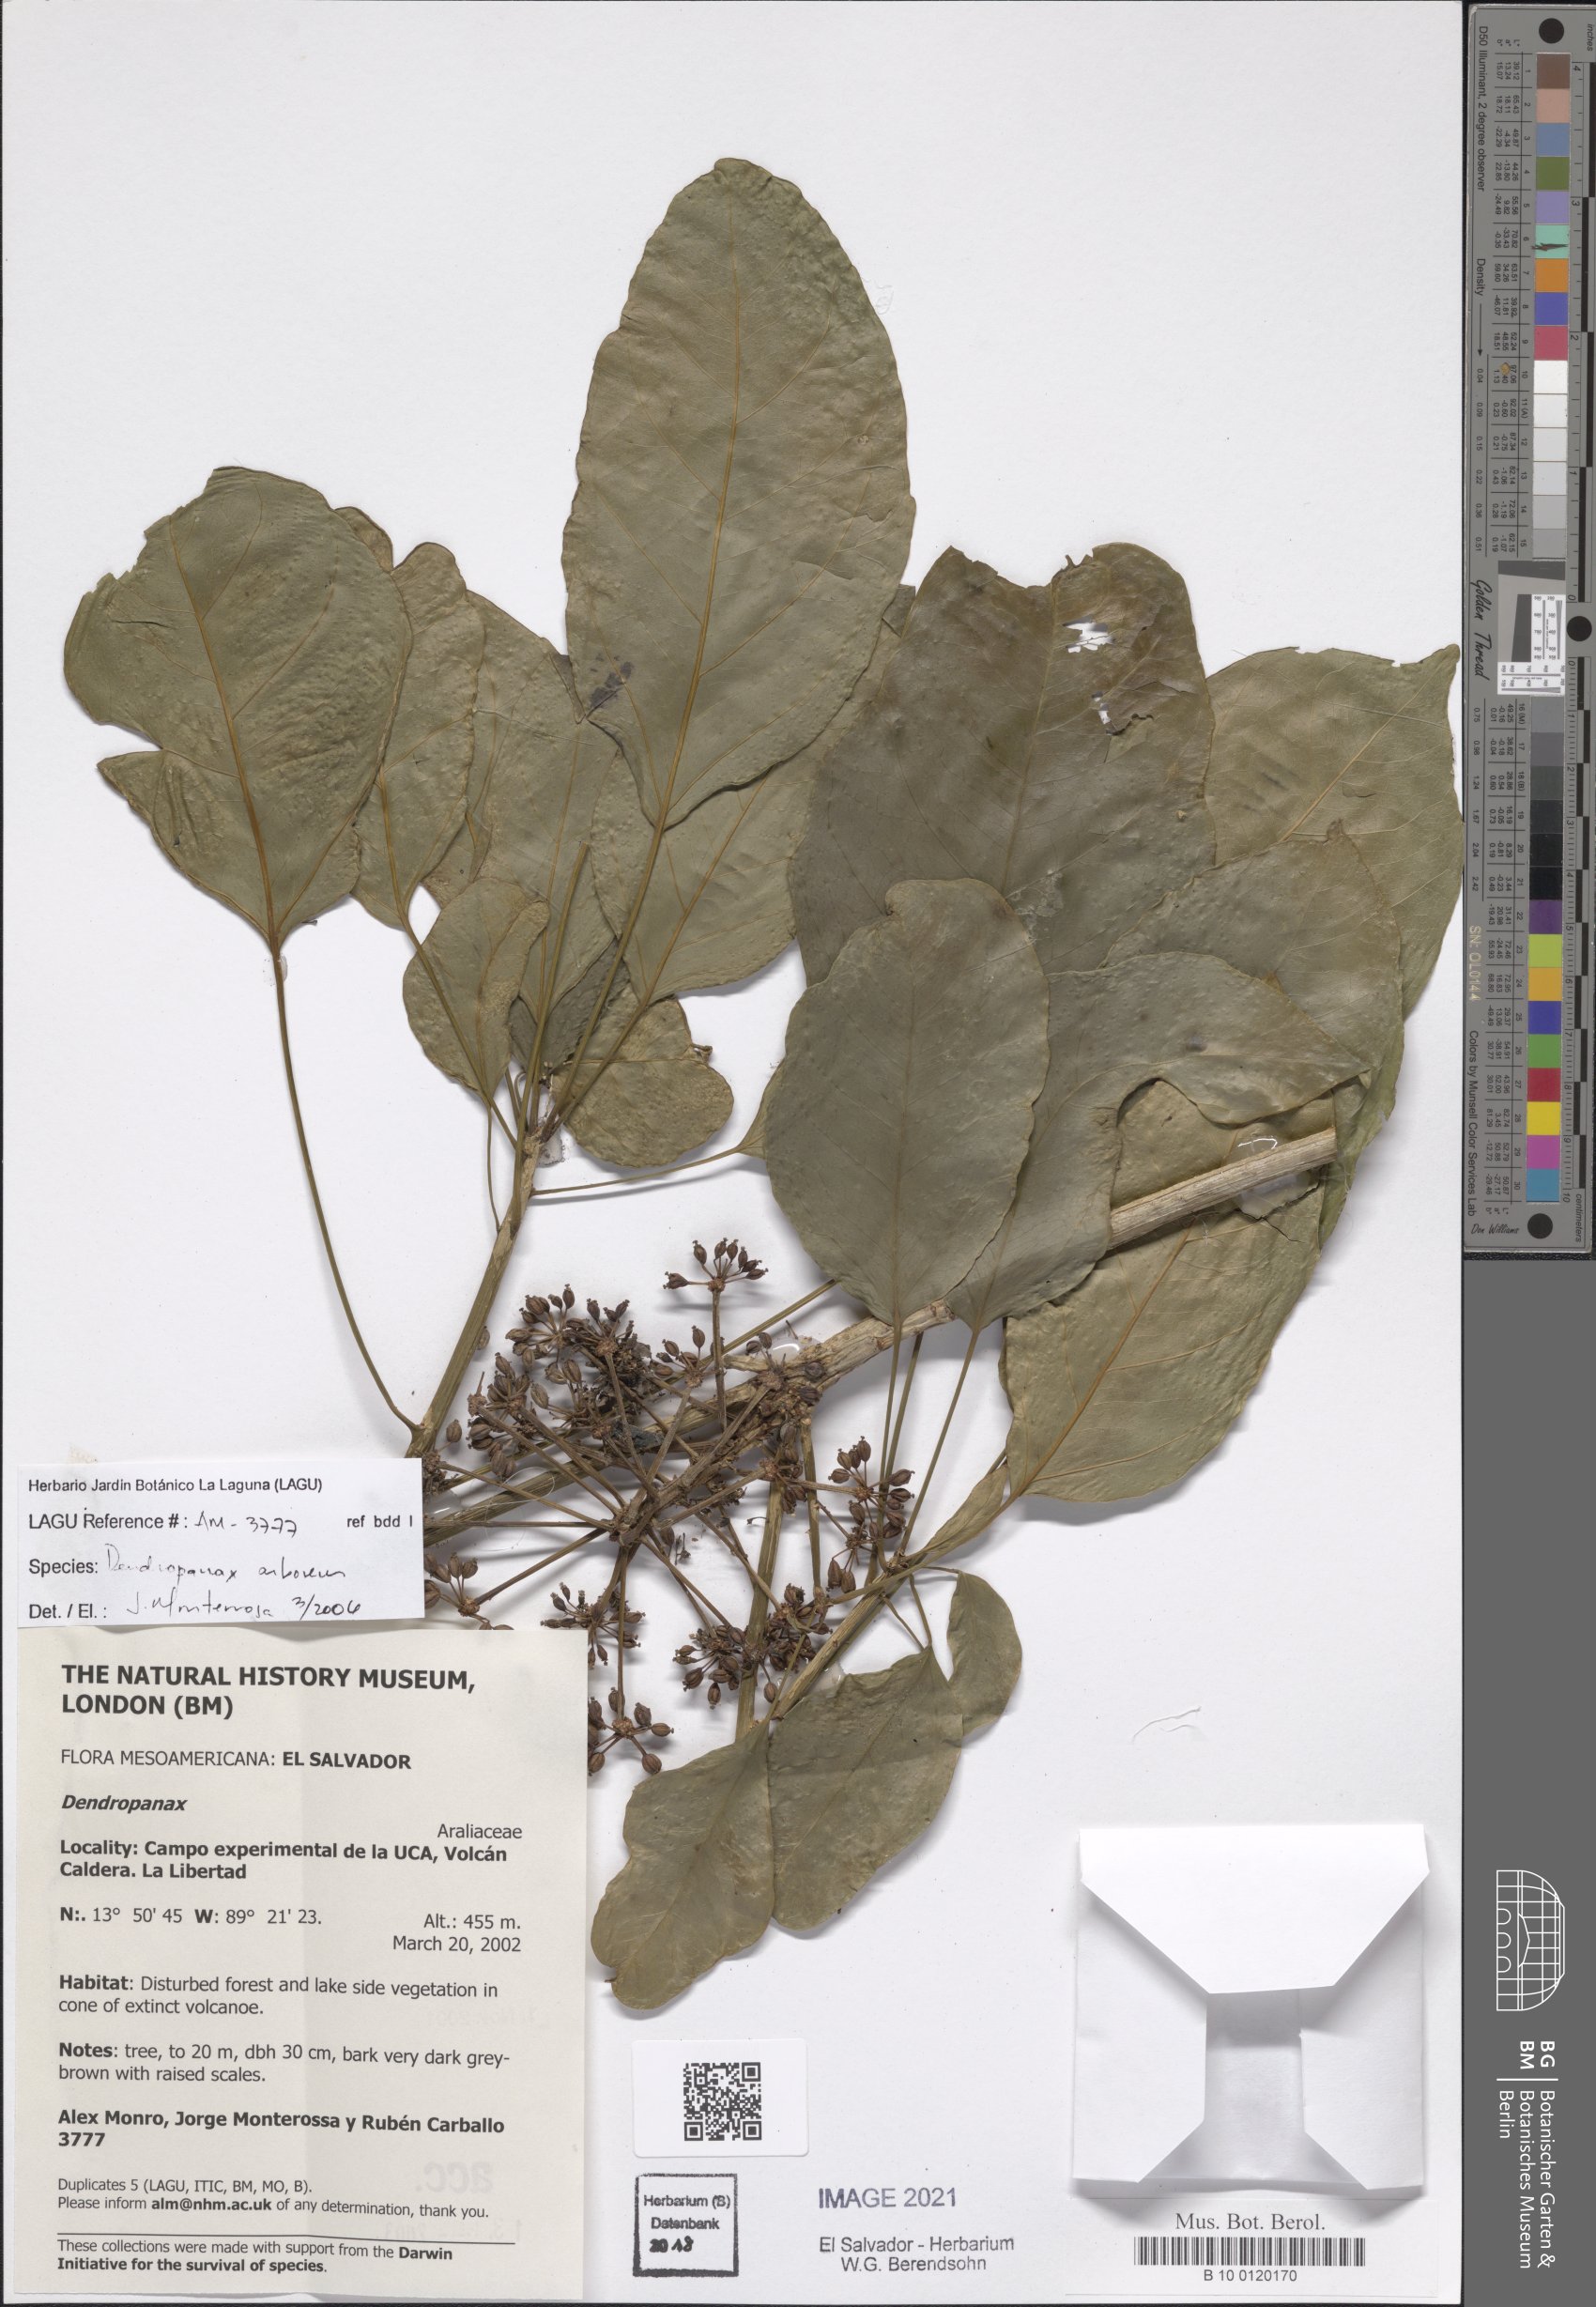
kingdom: Plantae
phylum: Tracheophyta
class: Magnoliopsida
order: Apiales
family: Araliaceae
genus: Dendropanax
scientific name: Dendropanax arboreus
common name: Potato-wood
